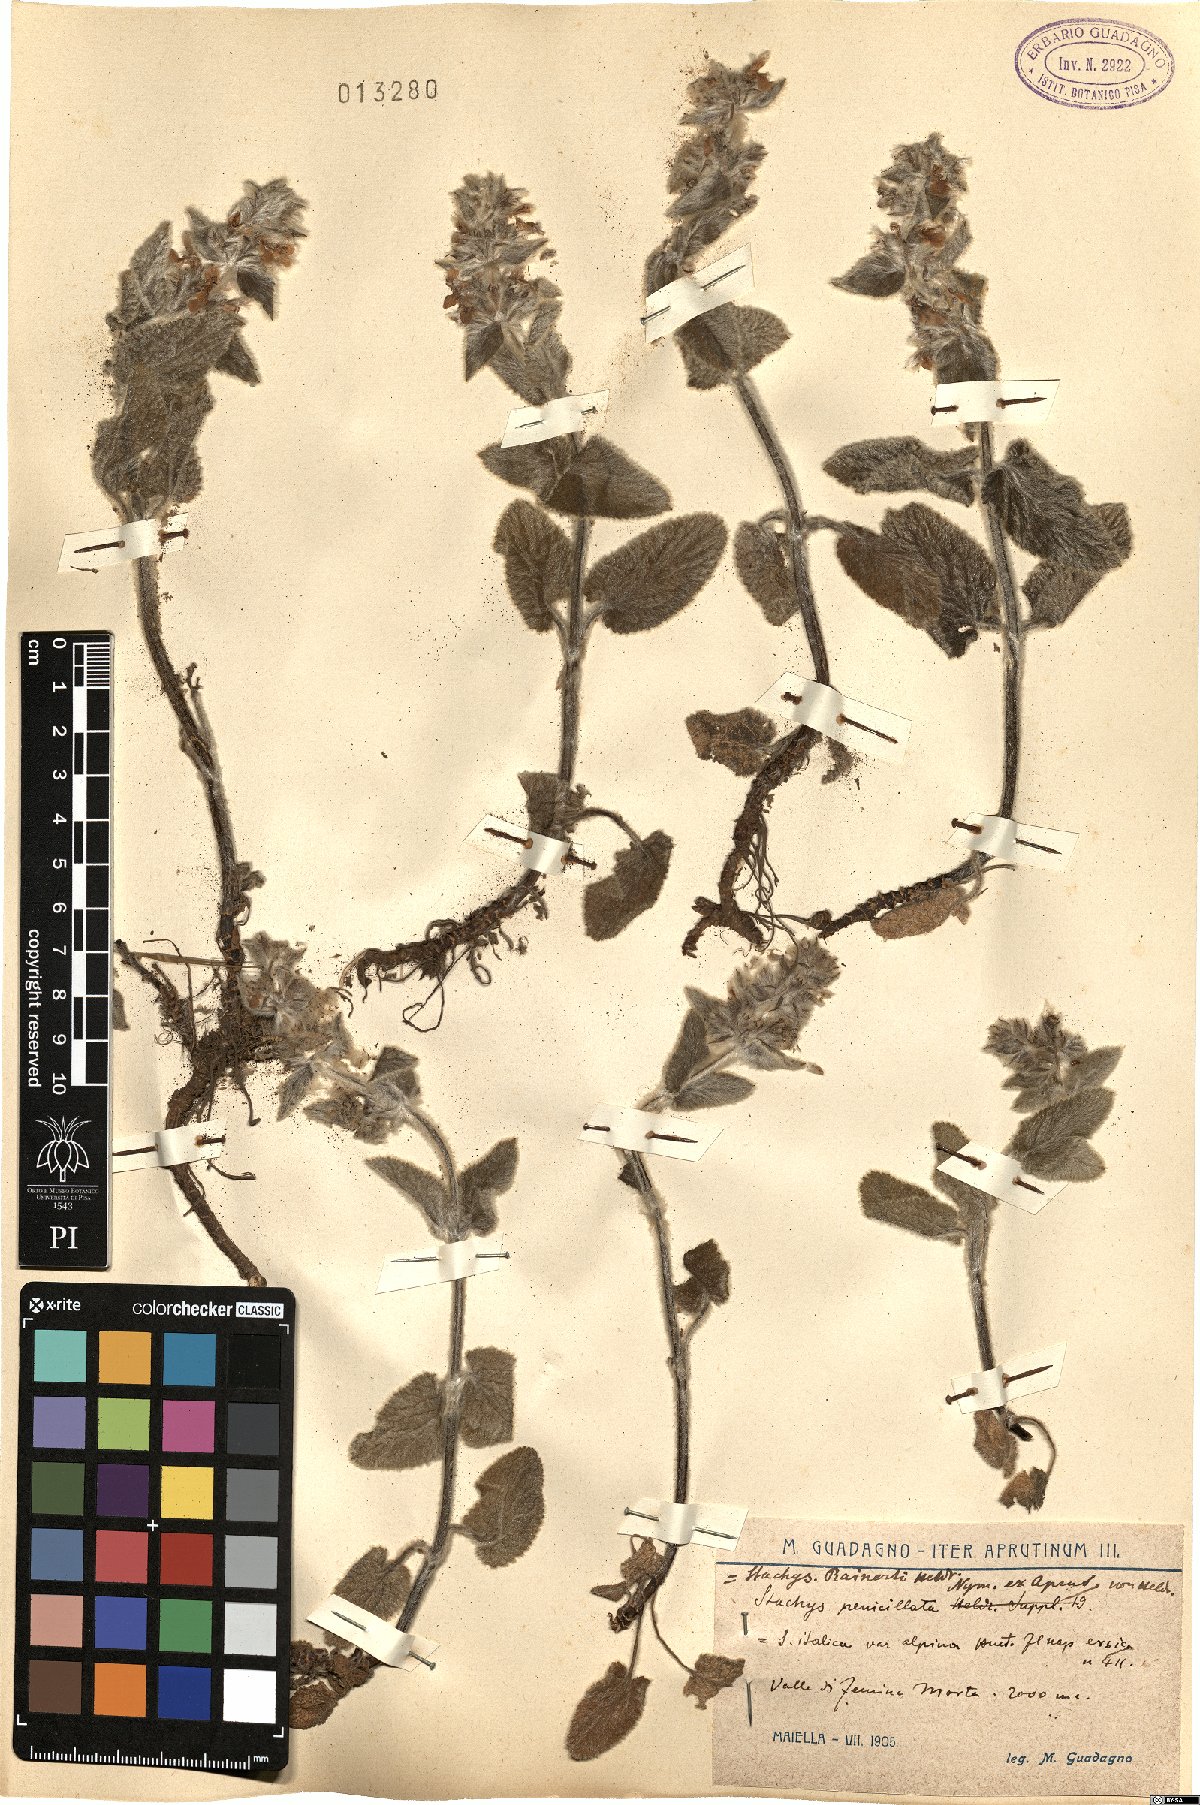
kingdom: Plantae
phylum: Tracheophyta
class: Magnoliopsida
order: Lamiales
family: Lamiaceae
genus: Stachys
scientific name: Stachys germanica
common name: Downy woundwort
